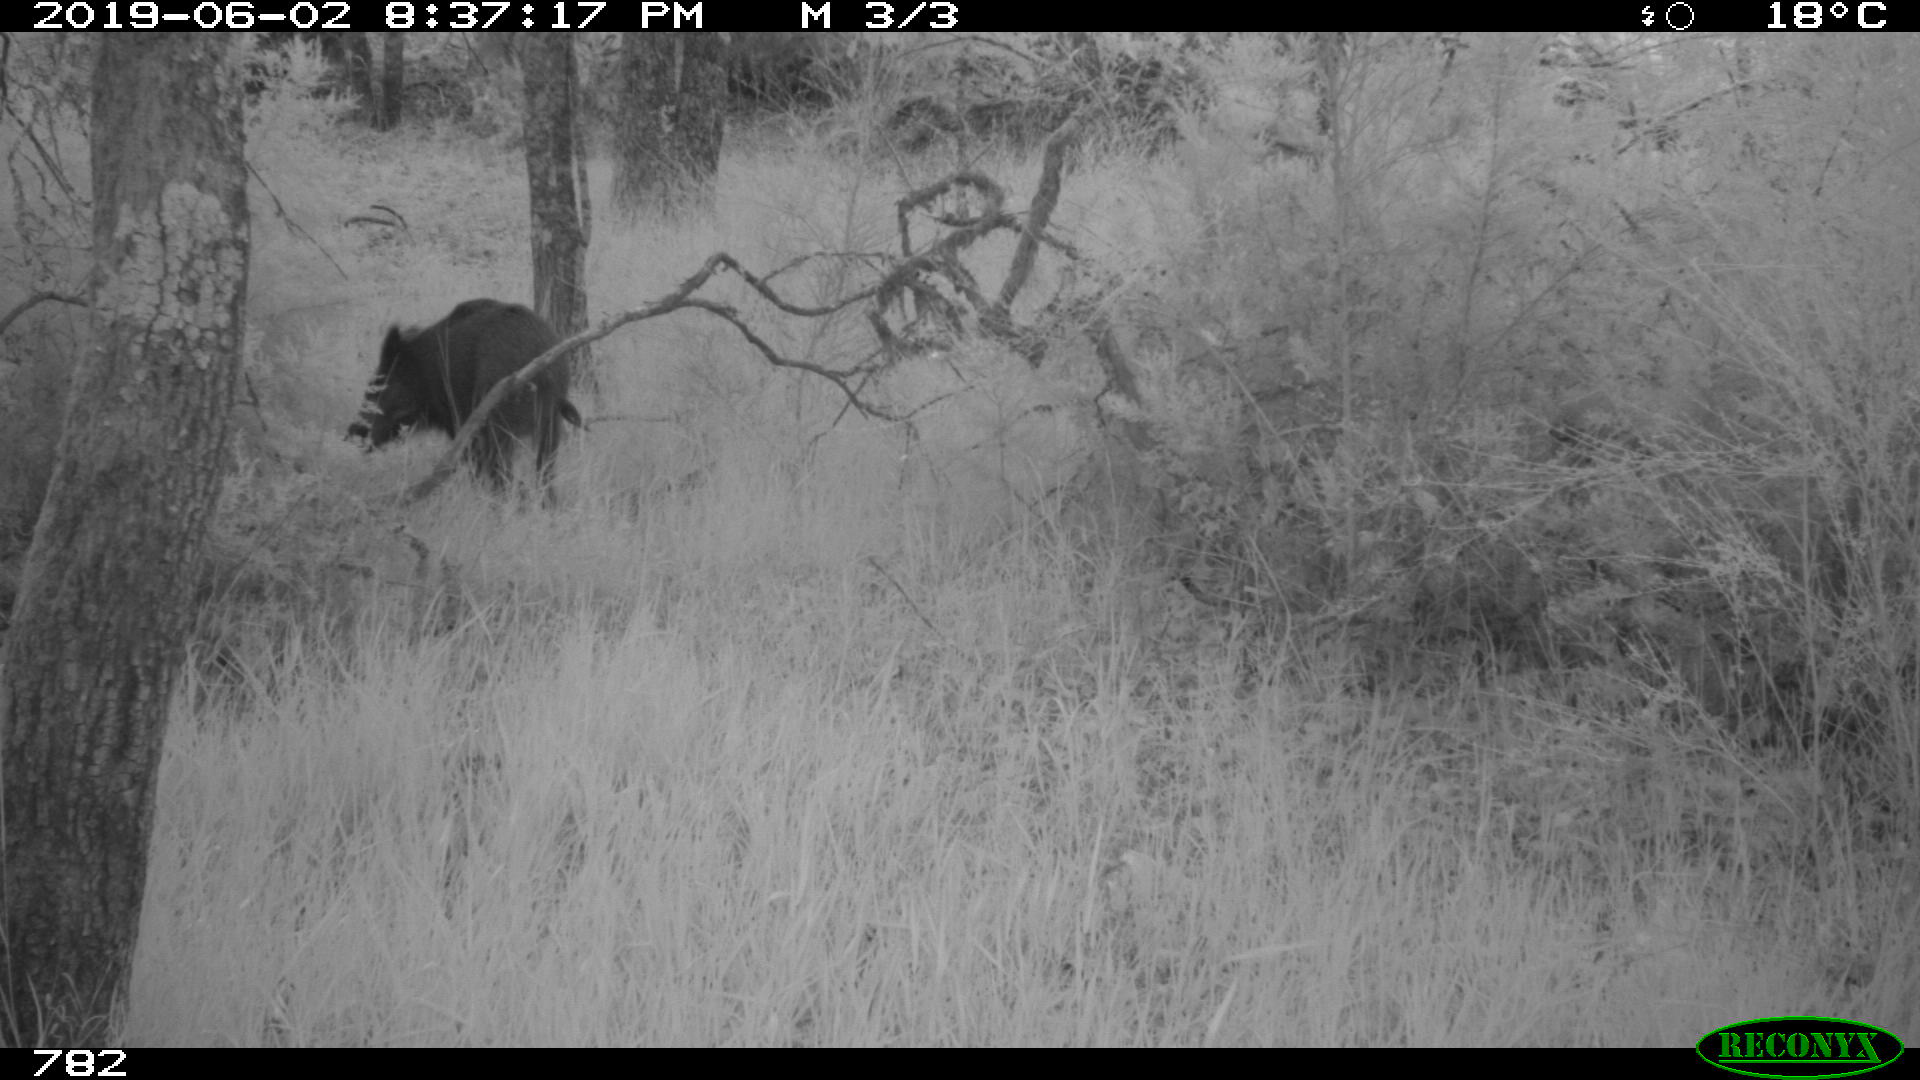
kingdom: Animalia
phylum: Chordata
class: Mammalia
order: Artiodactyla
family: Suidae
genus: Sus
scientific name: Sus scrofa
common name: Wild boar
